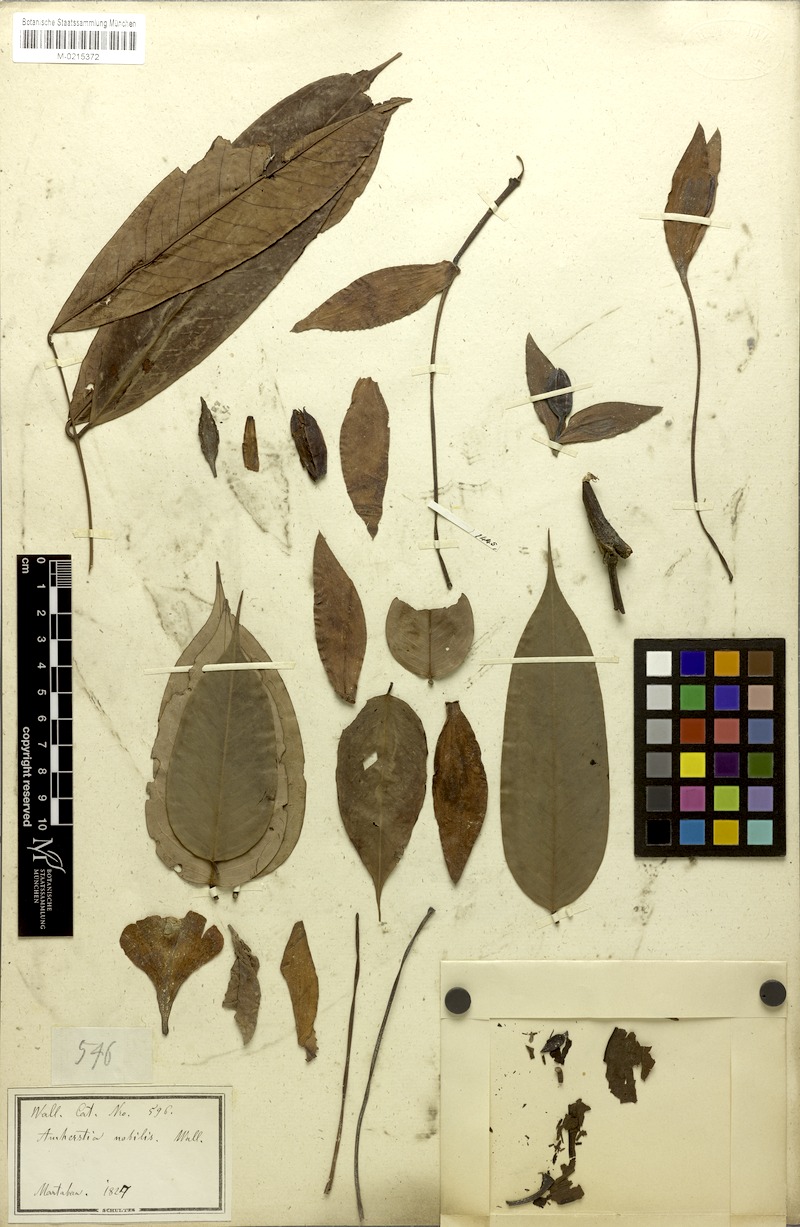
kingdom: Plantae
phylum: Tracheophyta
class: Magnoliopsida
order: Fabales
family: Fabaceae
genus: Amherstia
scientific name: Amherstia nobilis
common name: Pride-of-burma
